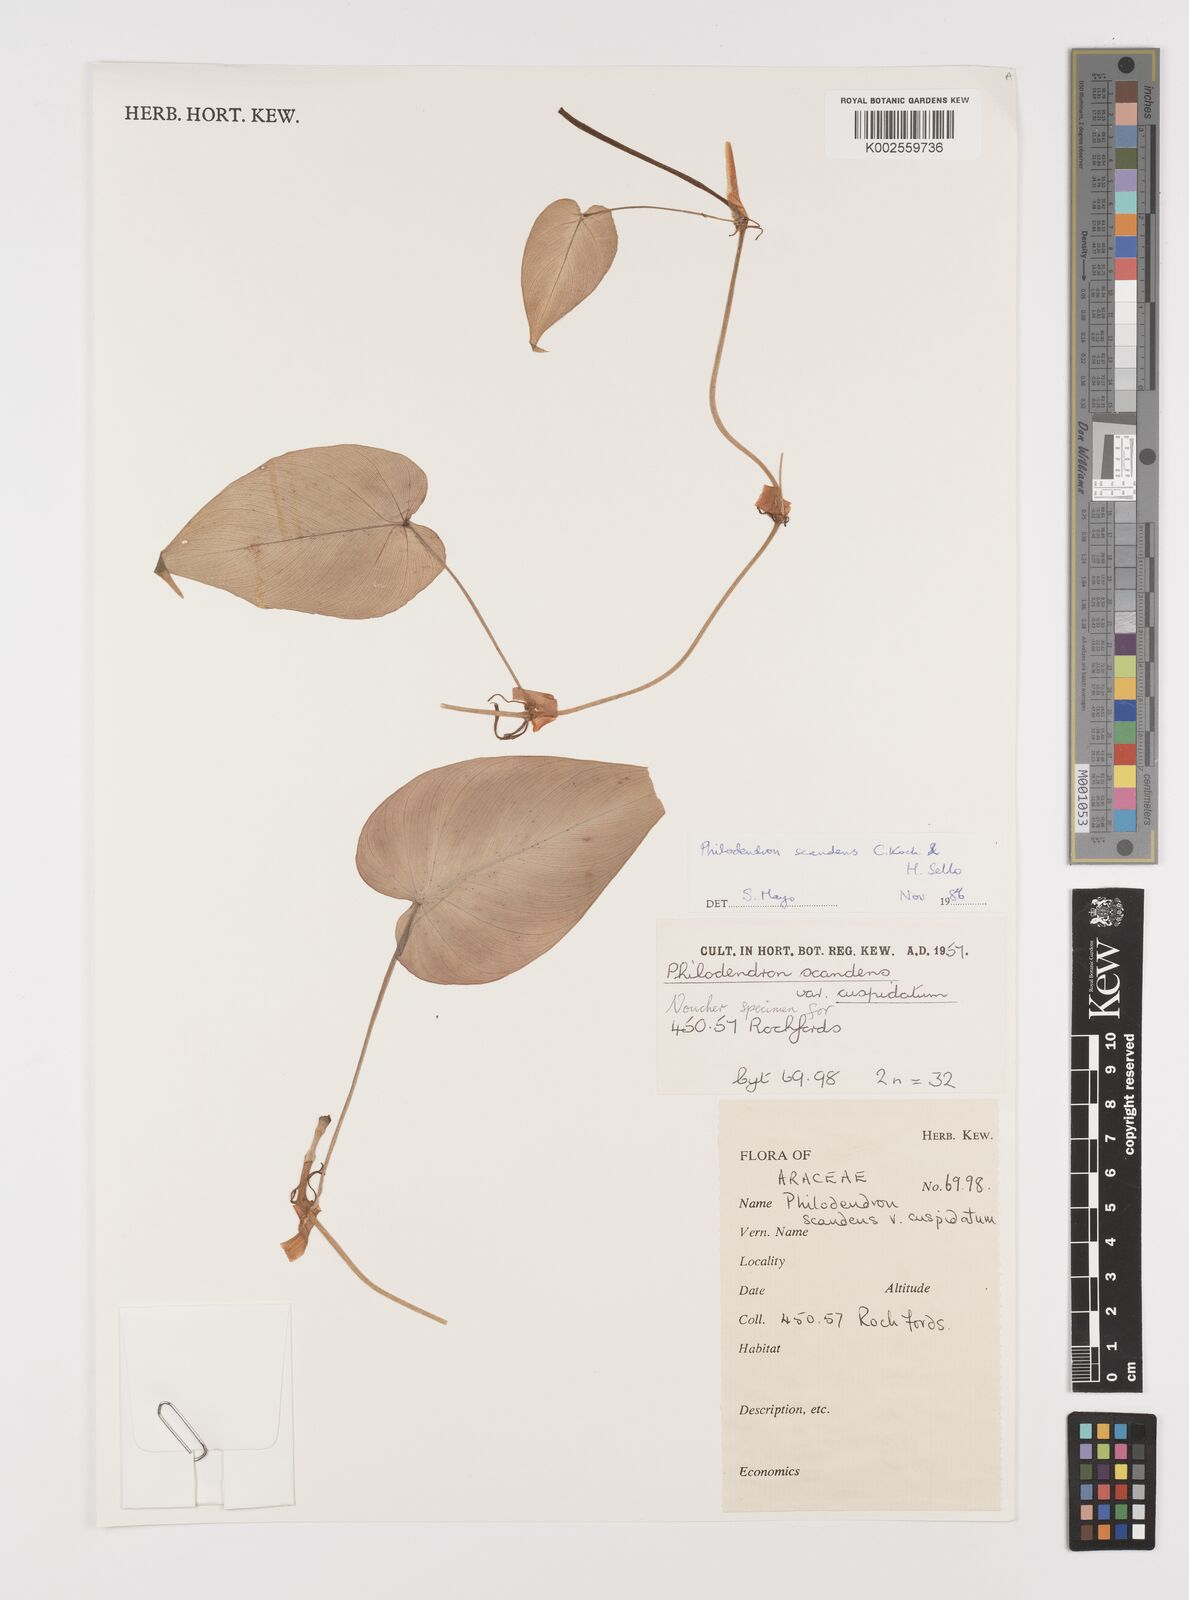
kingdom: Plantae
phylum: Tracheophyta
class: Liliopsida
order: Alismatales
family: Araceae
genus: Philodendron
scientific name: Philodendron hederaceum
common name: Vilevine
